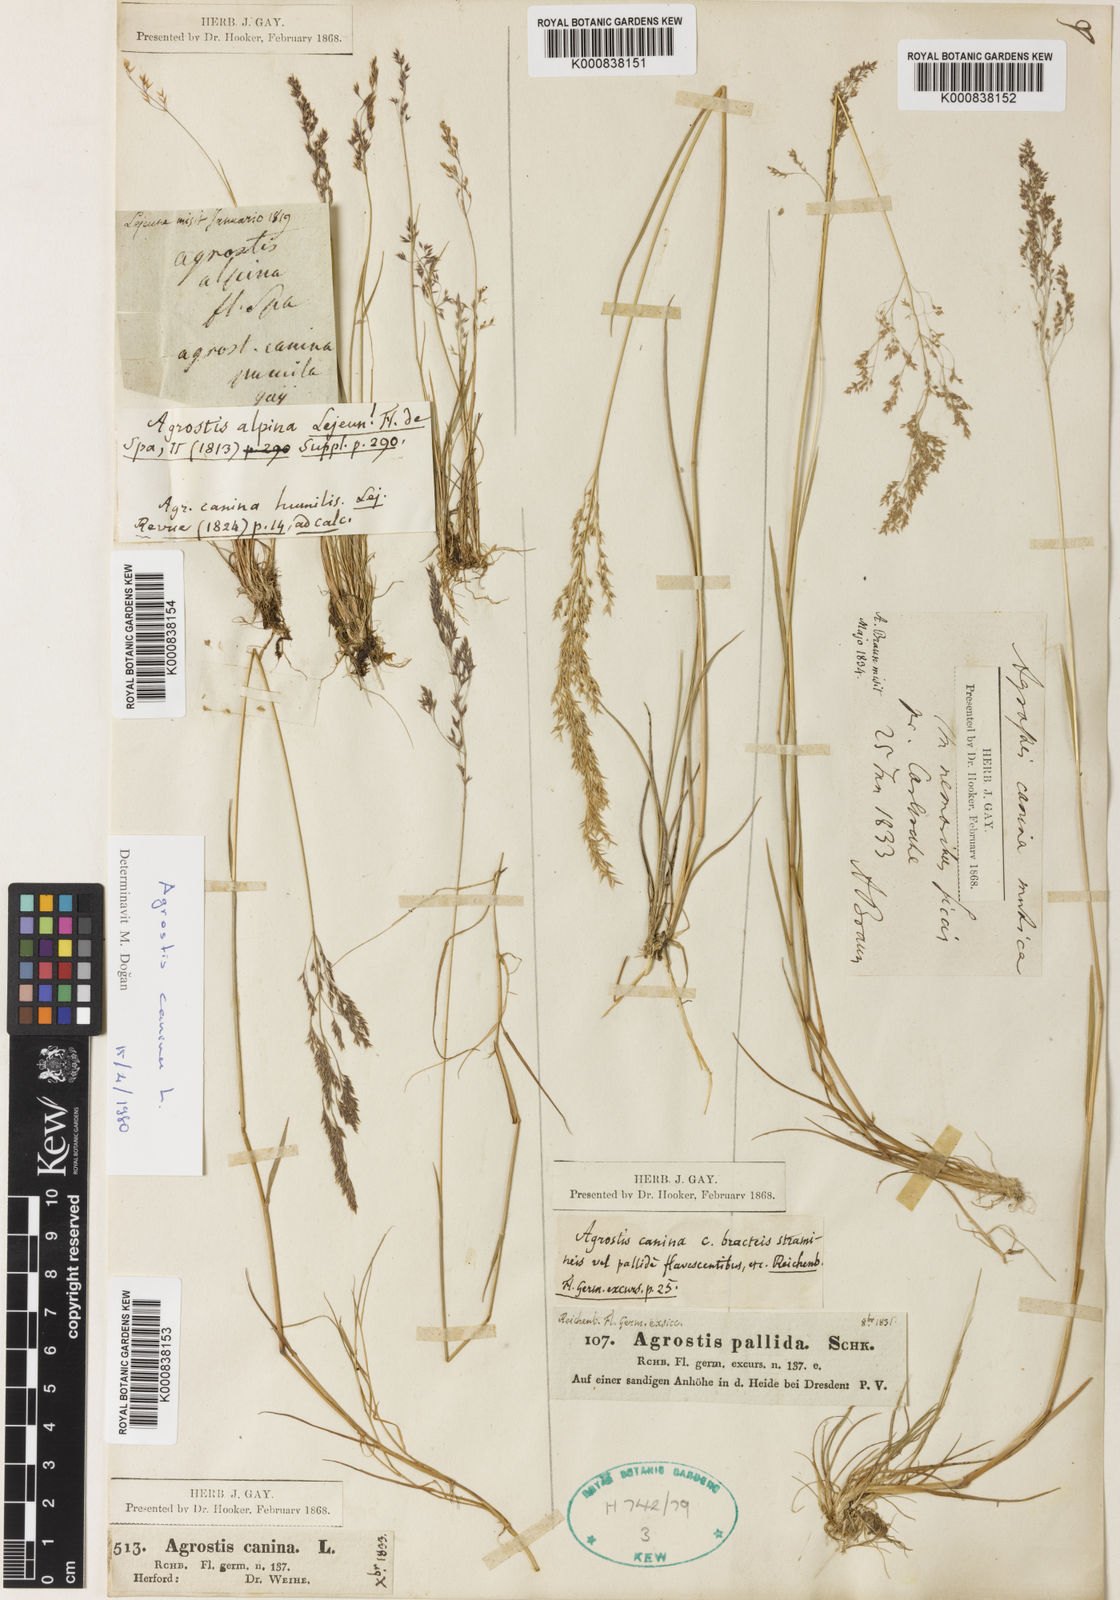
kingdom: Plantae
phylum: Tracheophyta
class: Liliopsida
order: Poales
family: Poaceae
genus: Agrostis
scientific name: Agrostis canina
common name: Velvet bent
